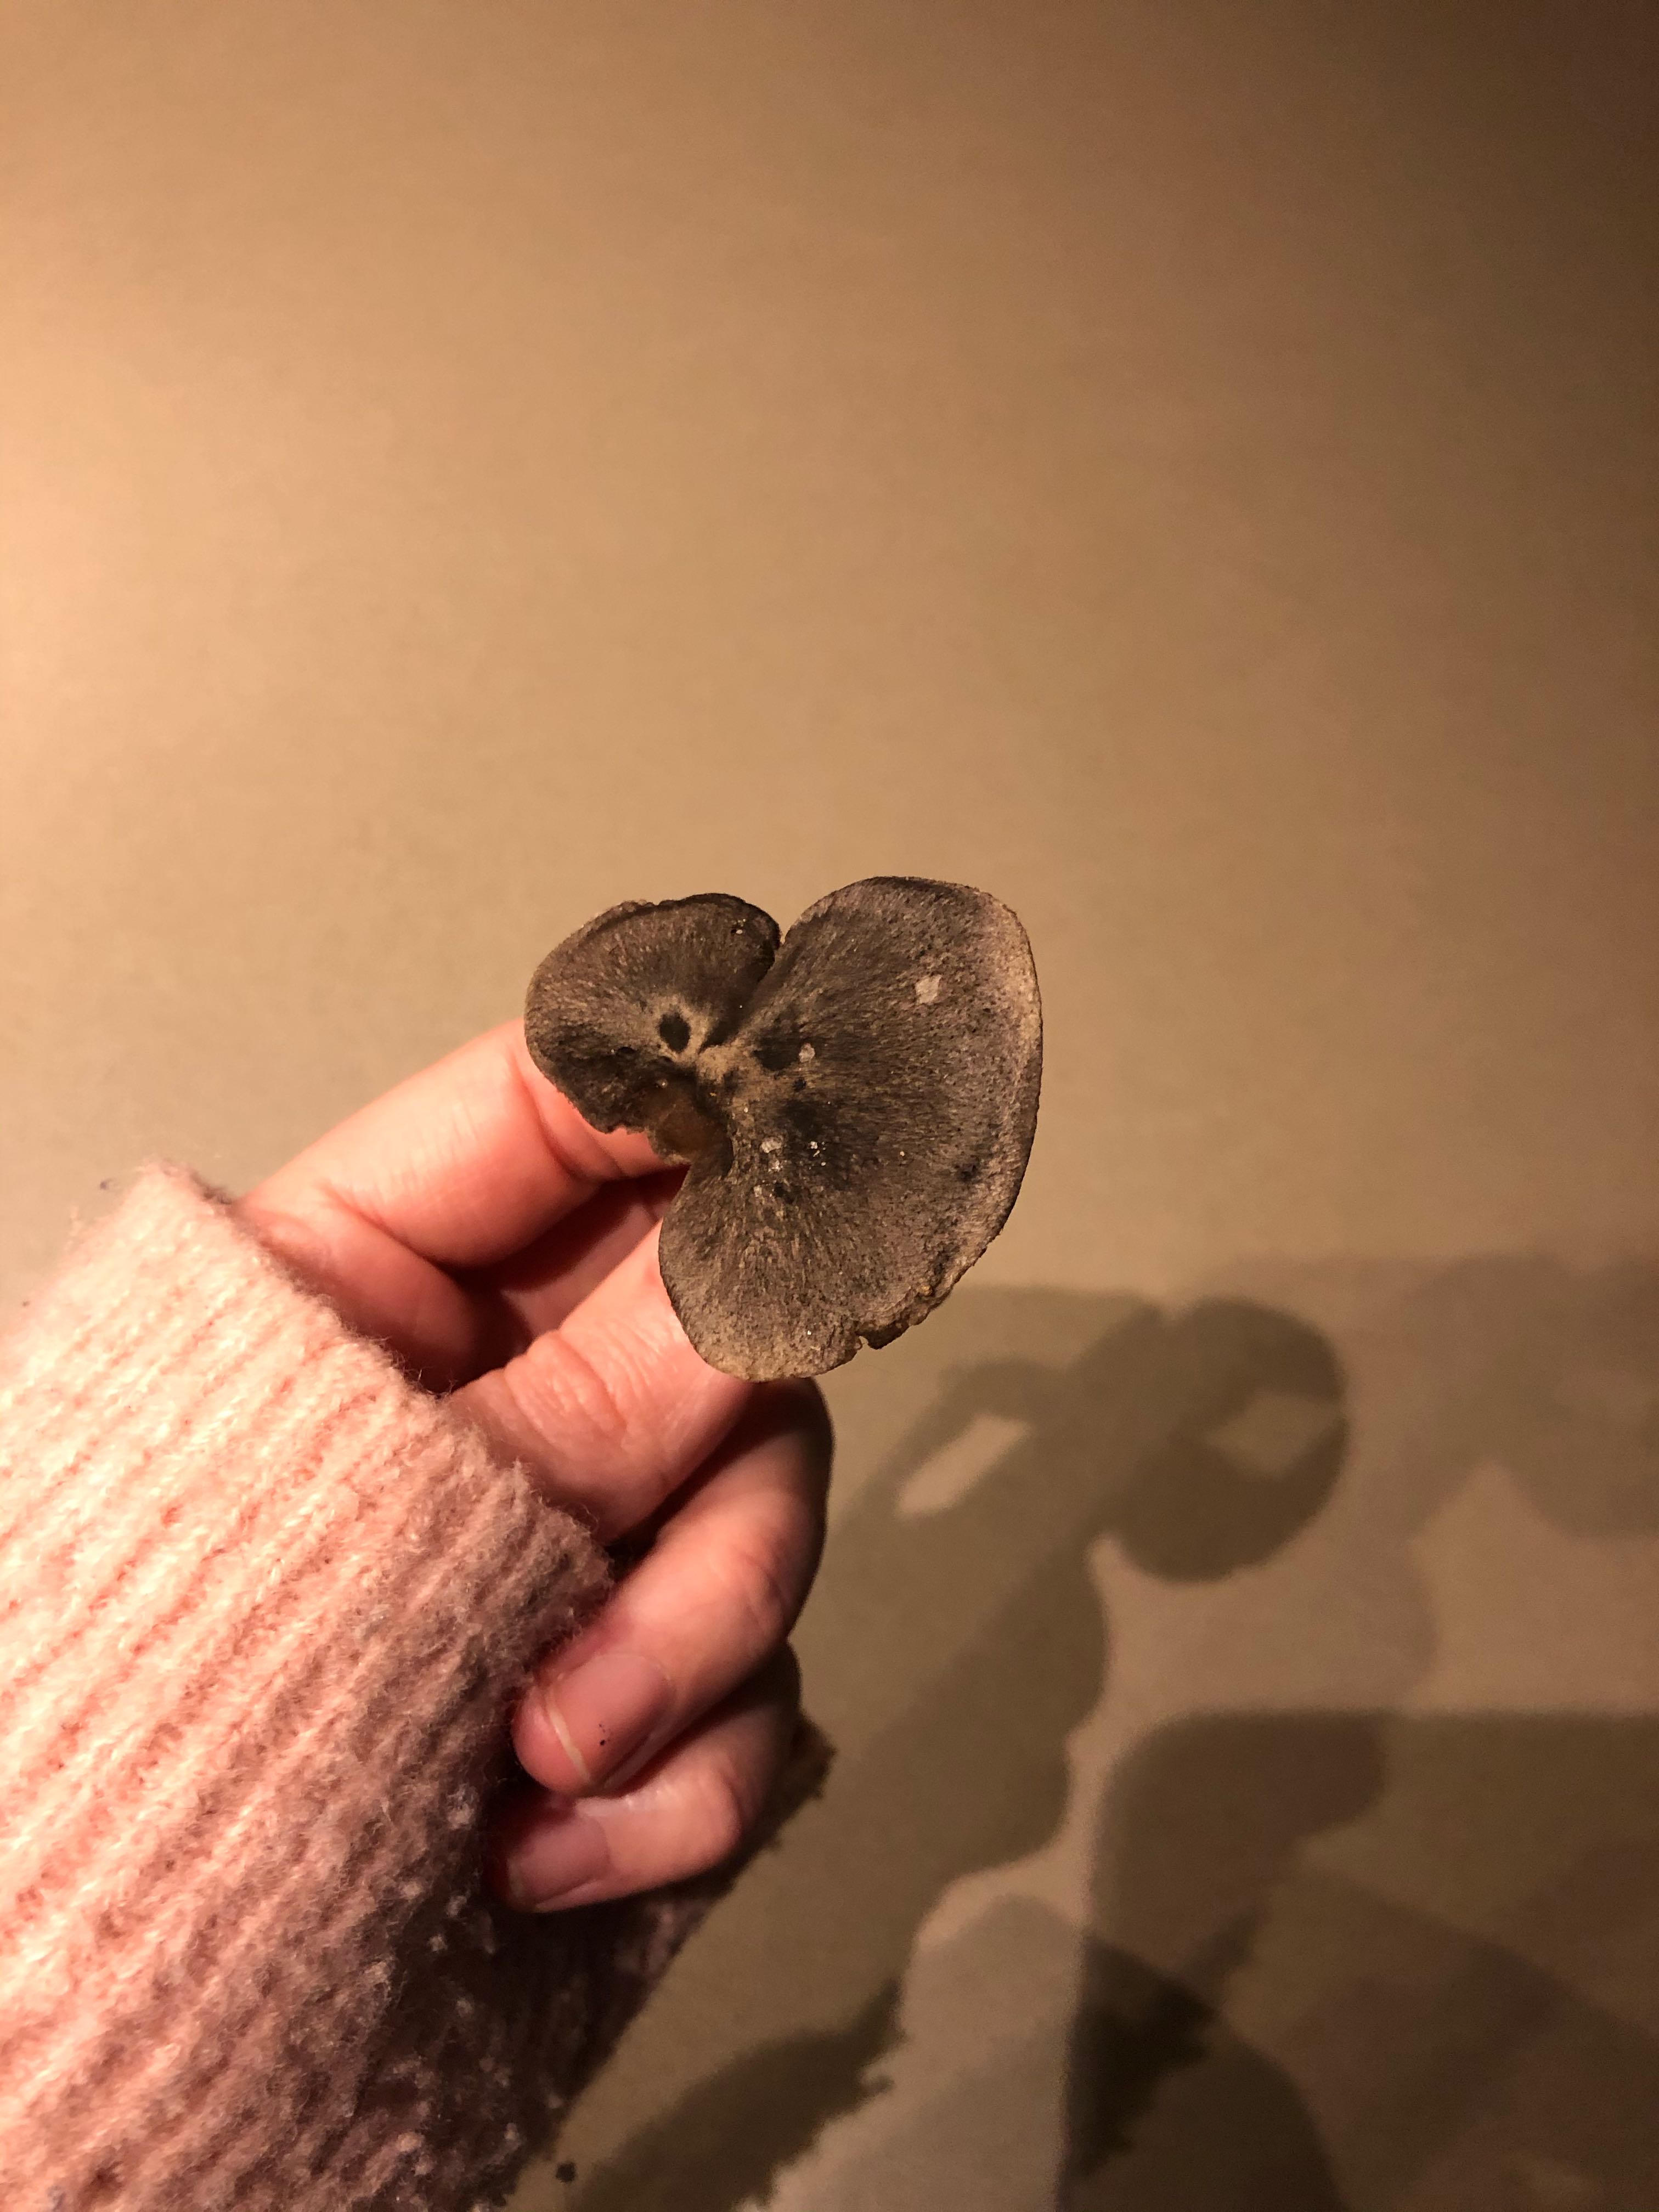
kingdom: Fungi
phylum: Basidiomycota
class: Agaricomycetes
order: Agaricales
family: Tricholomataceae
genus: Tricholoma
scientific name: Tricholoma terreum
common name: jordfarvet ridderhat
